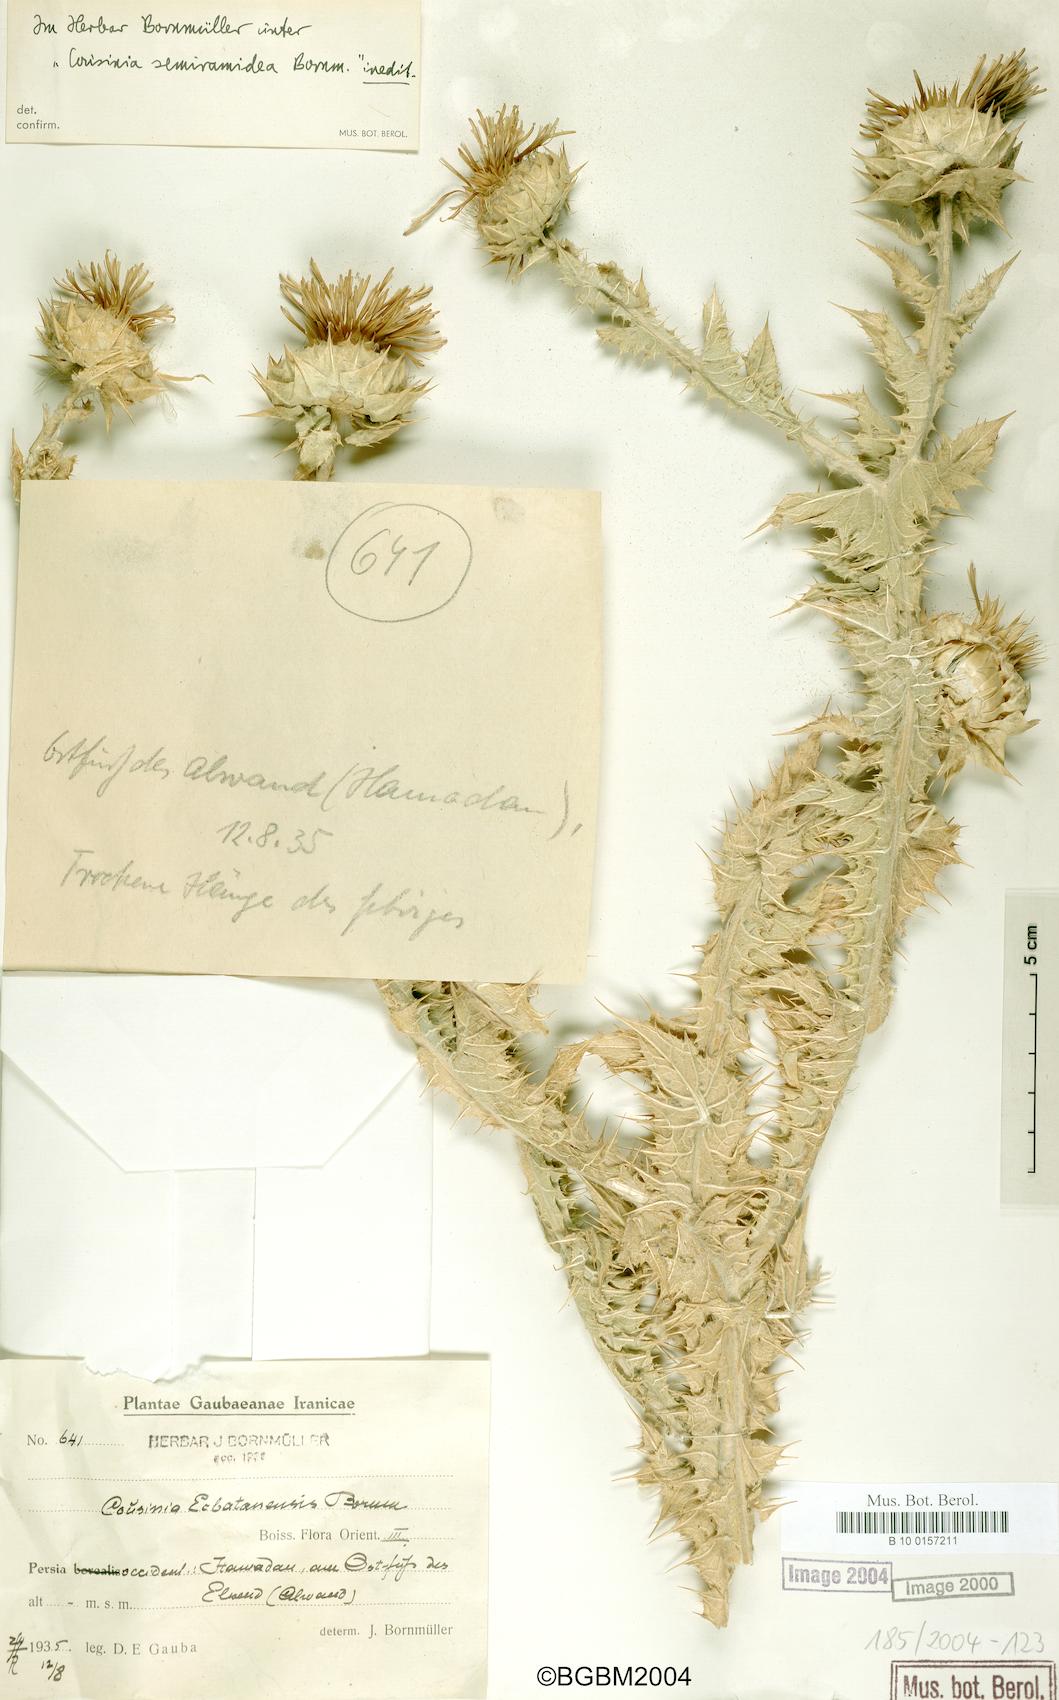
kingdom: Plantae
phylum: Tracheophyta
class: Magnoliopsida
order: Asterales
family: Asteraceae
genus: Cousinia
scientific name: Cousinia ecbatanensis
